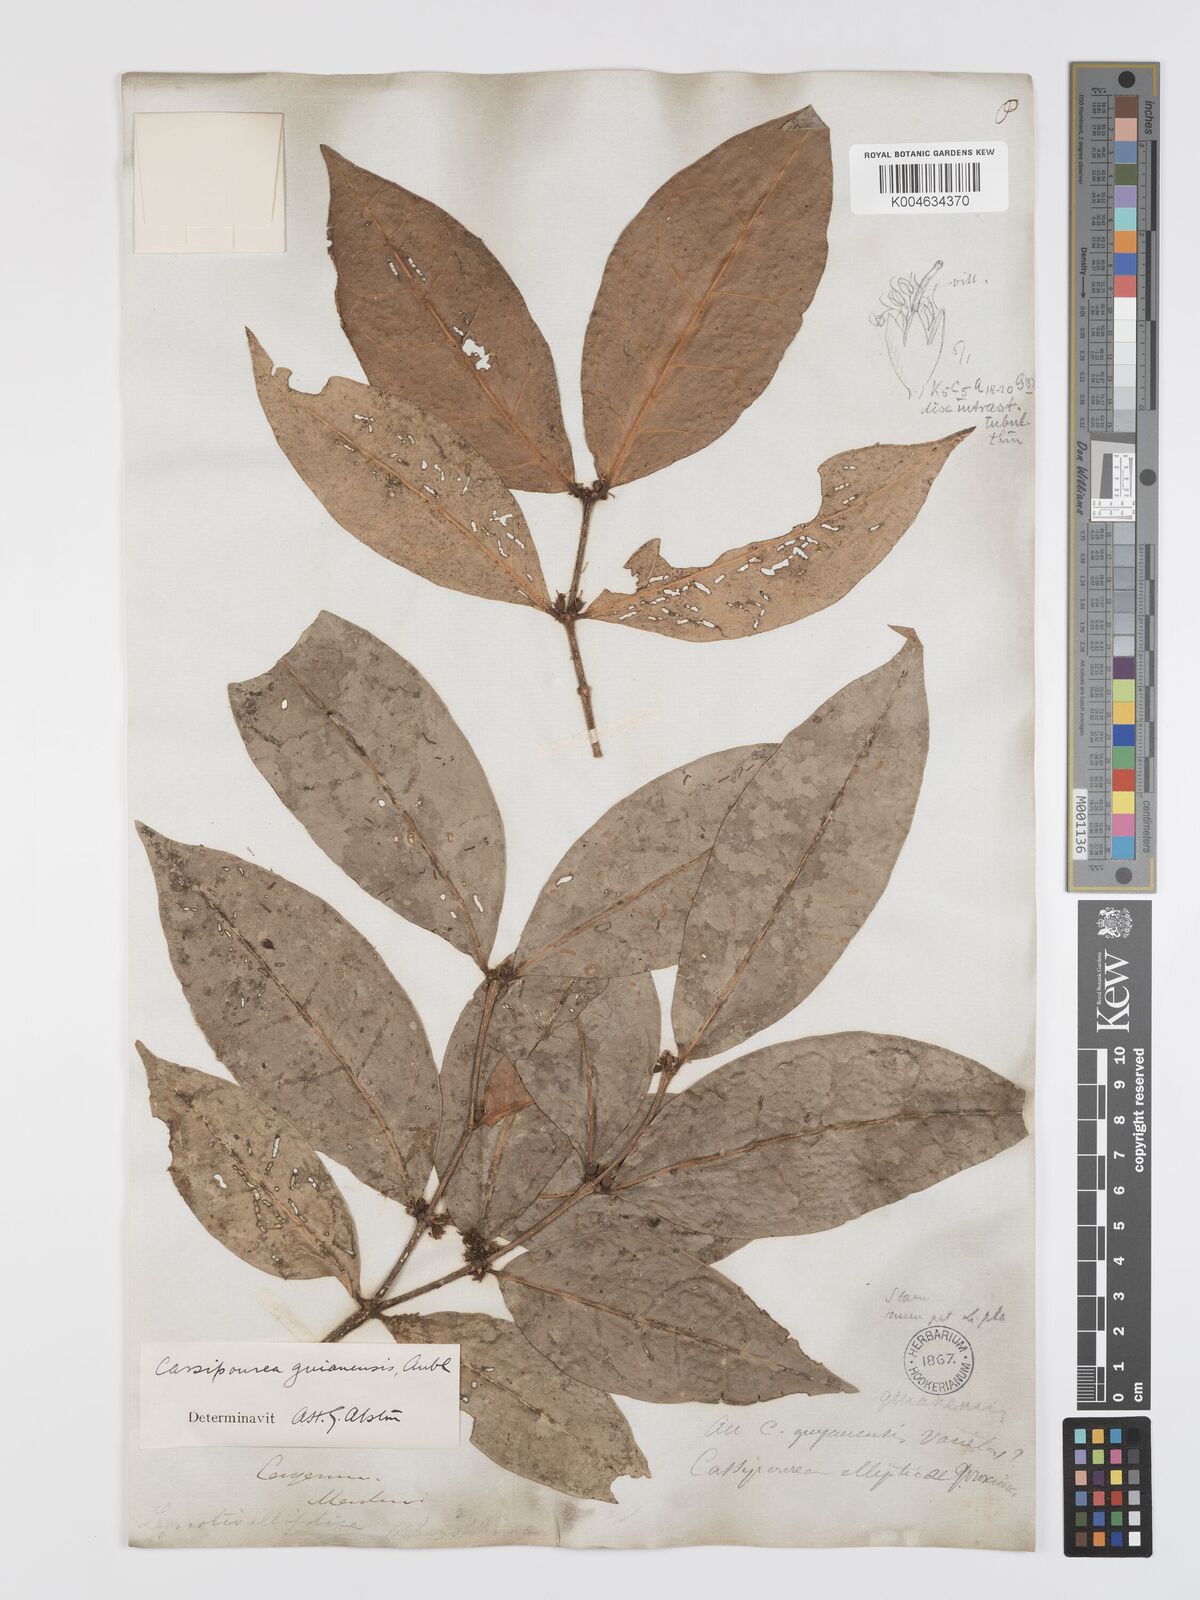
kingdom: Plantae
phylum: Tracheophyta
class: Magnoliopsida
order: Malpighiales
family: Rhizophoraceae
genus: Cassipourea
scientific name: Cassipourea guianensis
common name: Bastard waterwood
